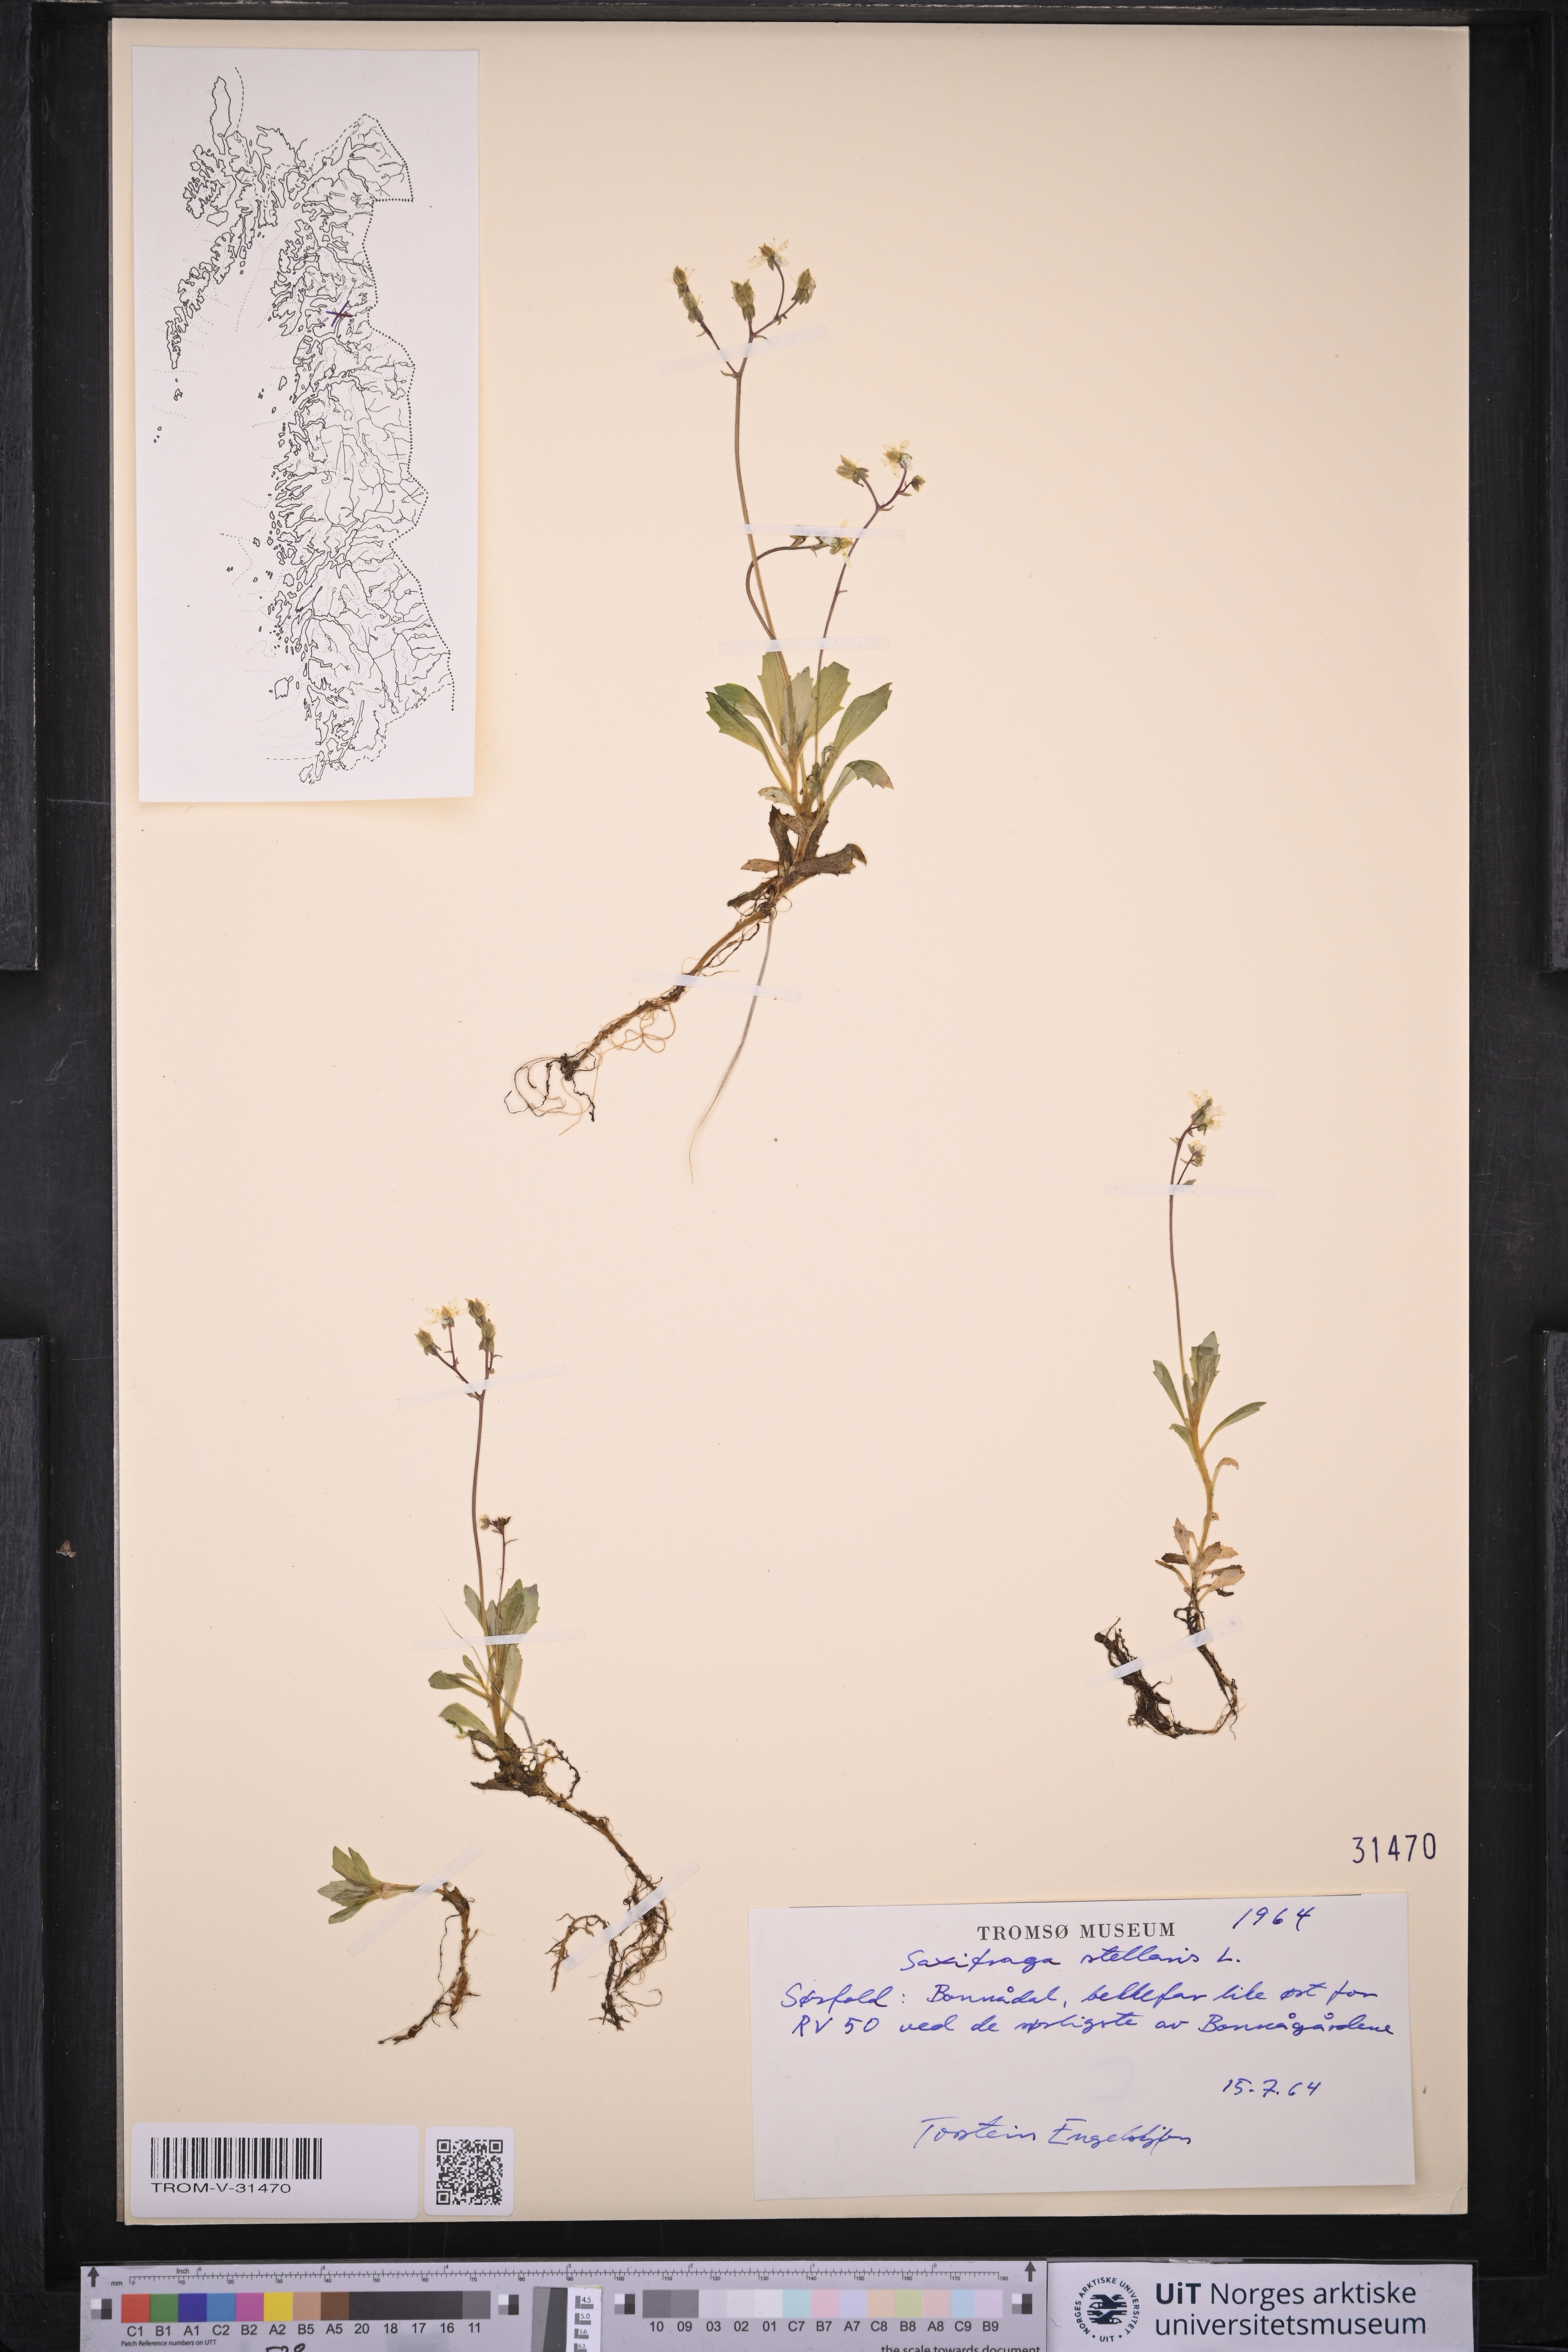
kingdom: Plantae
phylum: Tracheophyta
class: Magnoliopsida
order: Saxifragales
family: Saxifragaceae
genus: Micranthes
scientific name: Micranthes stellaris
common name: Starry saxifrage
